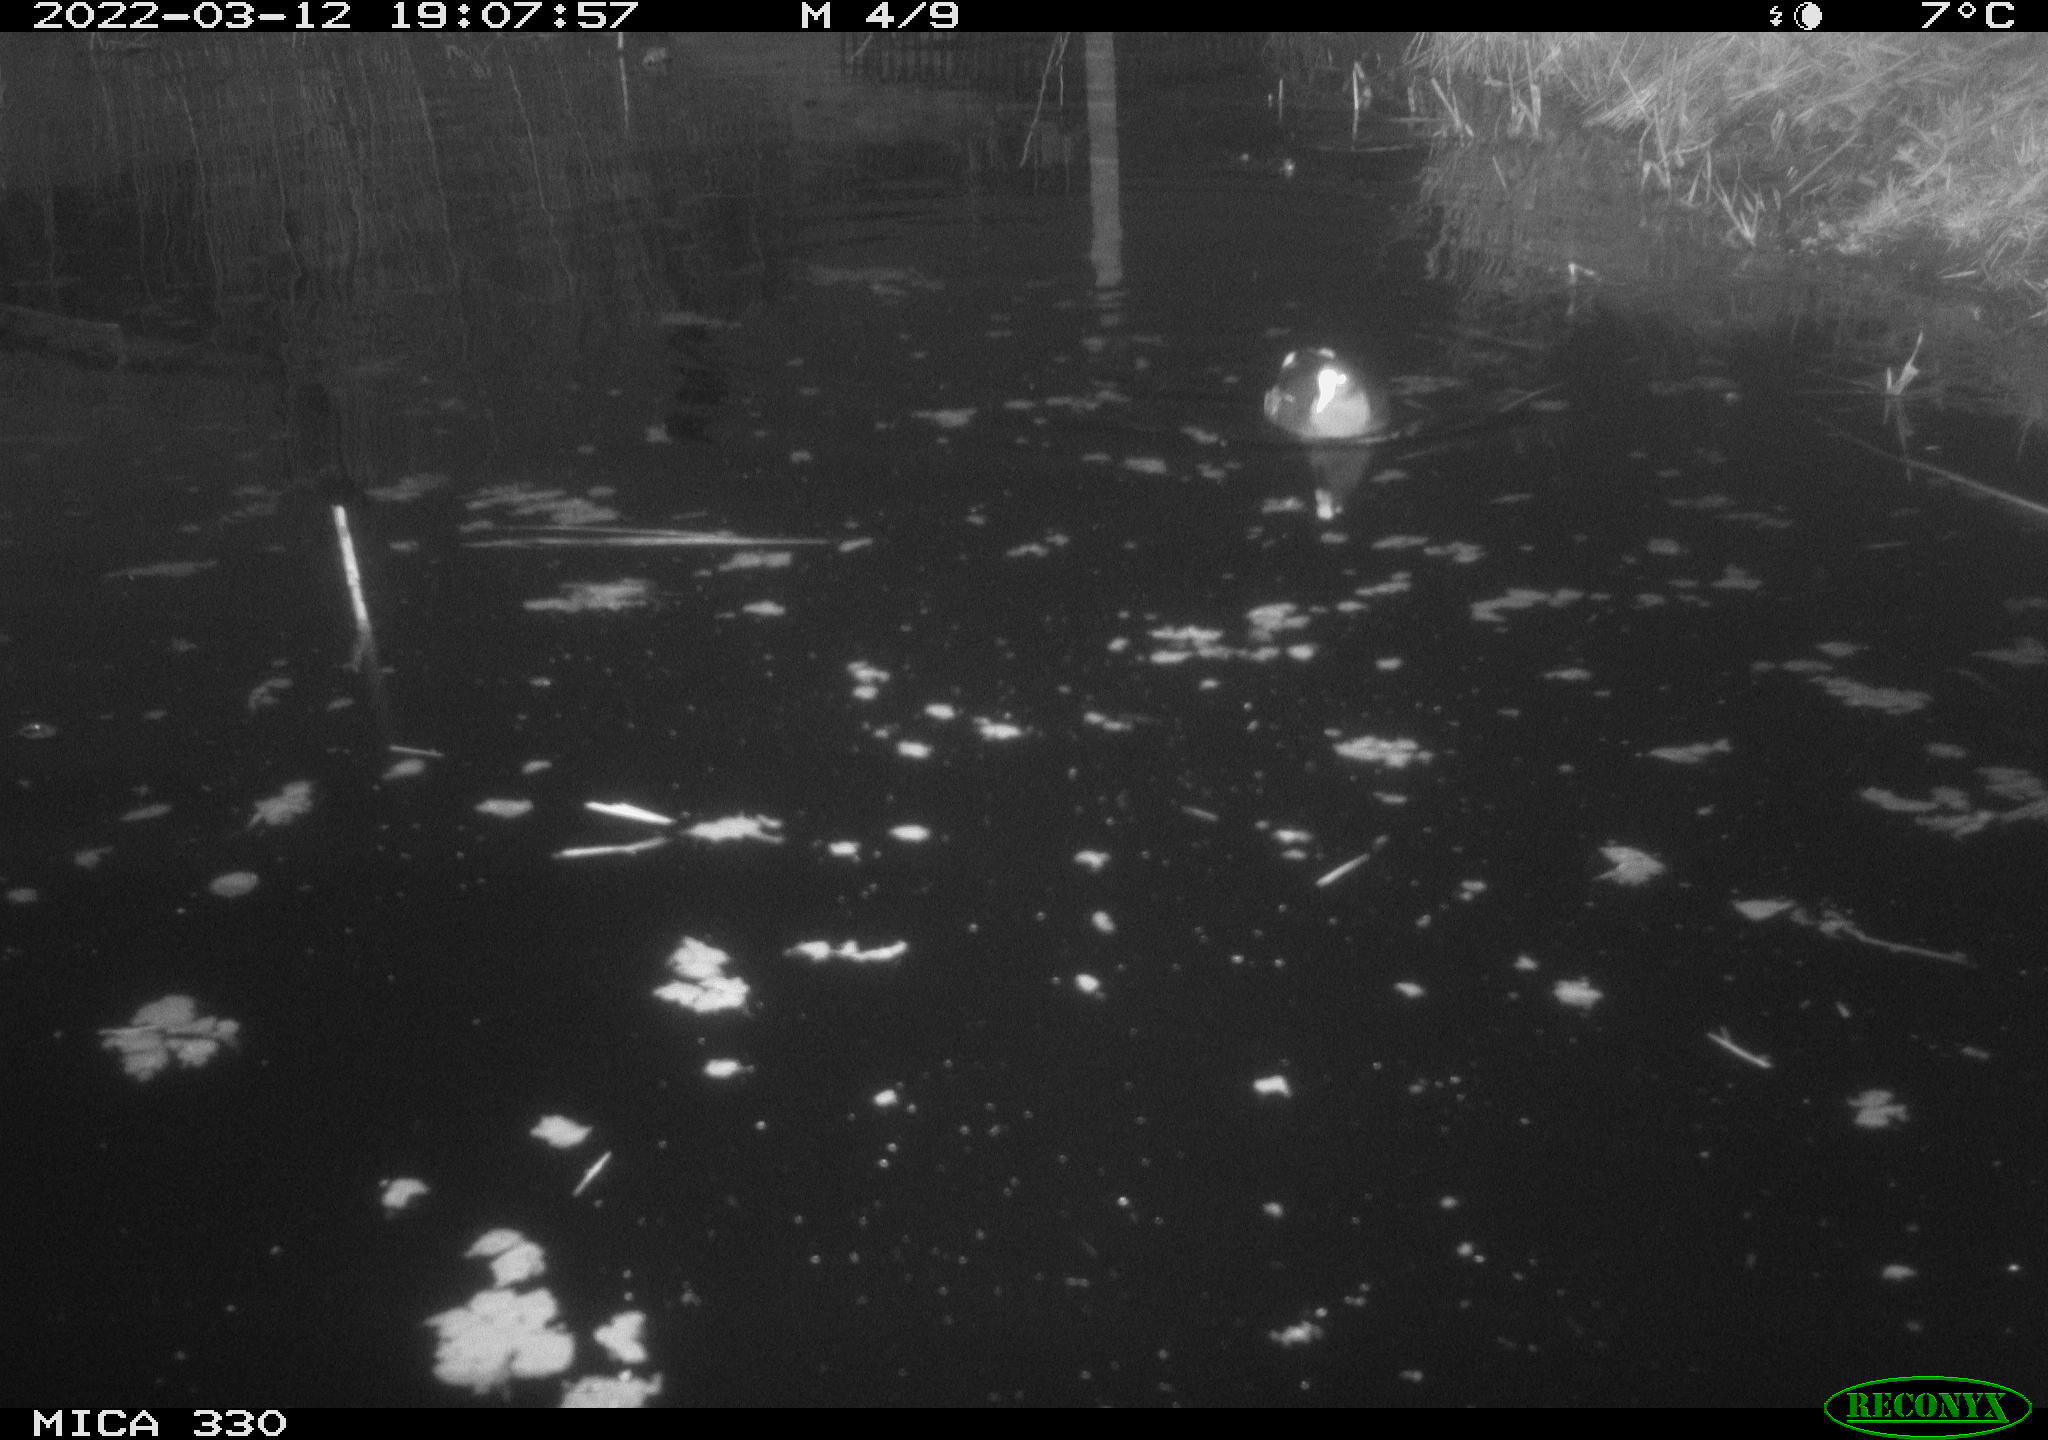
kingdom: Animalia
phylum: Chordata
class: Aves
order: Gruiformes
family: Rallidae
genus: Gallinula
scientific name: Gallinula chloropus
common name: Common moorhen
